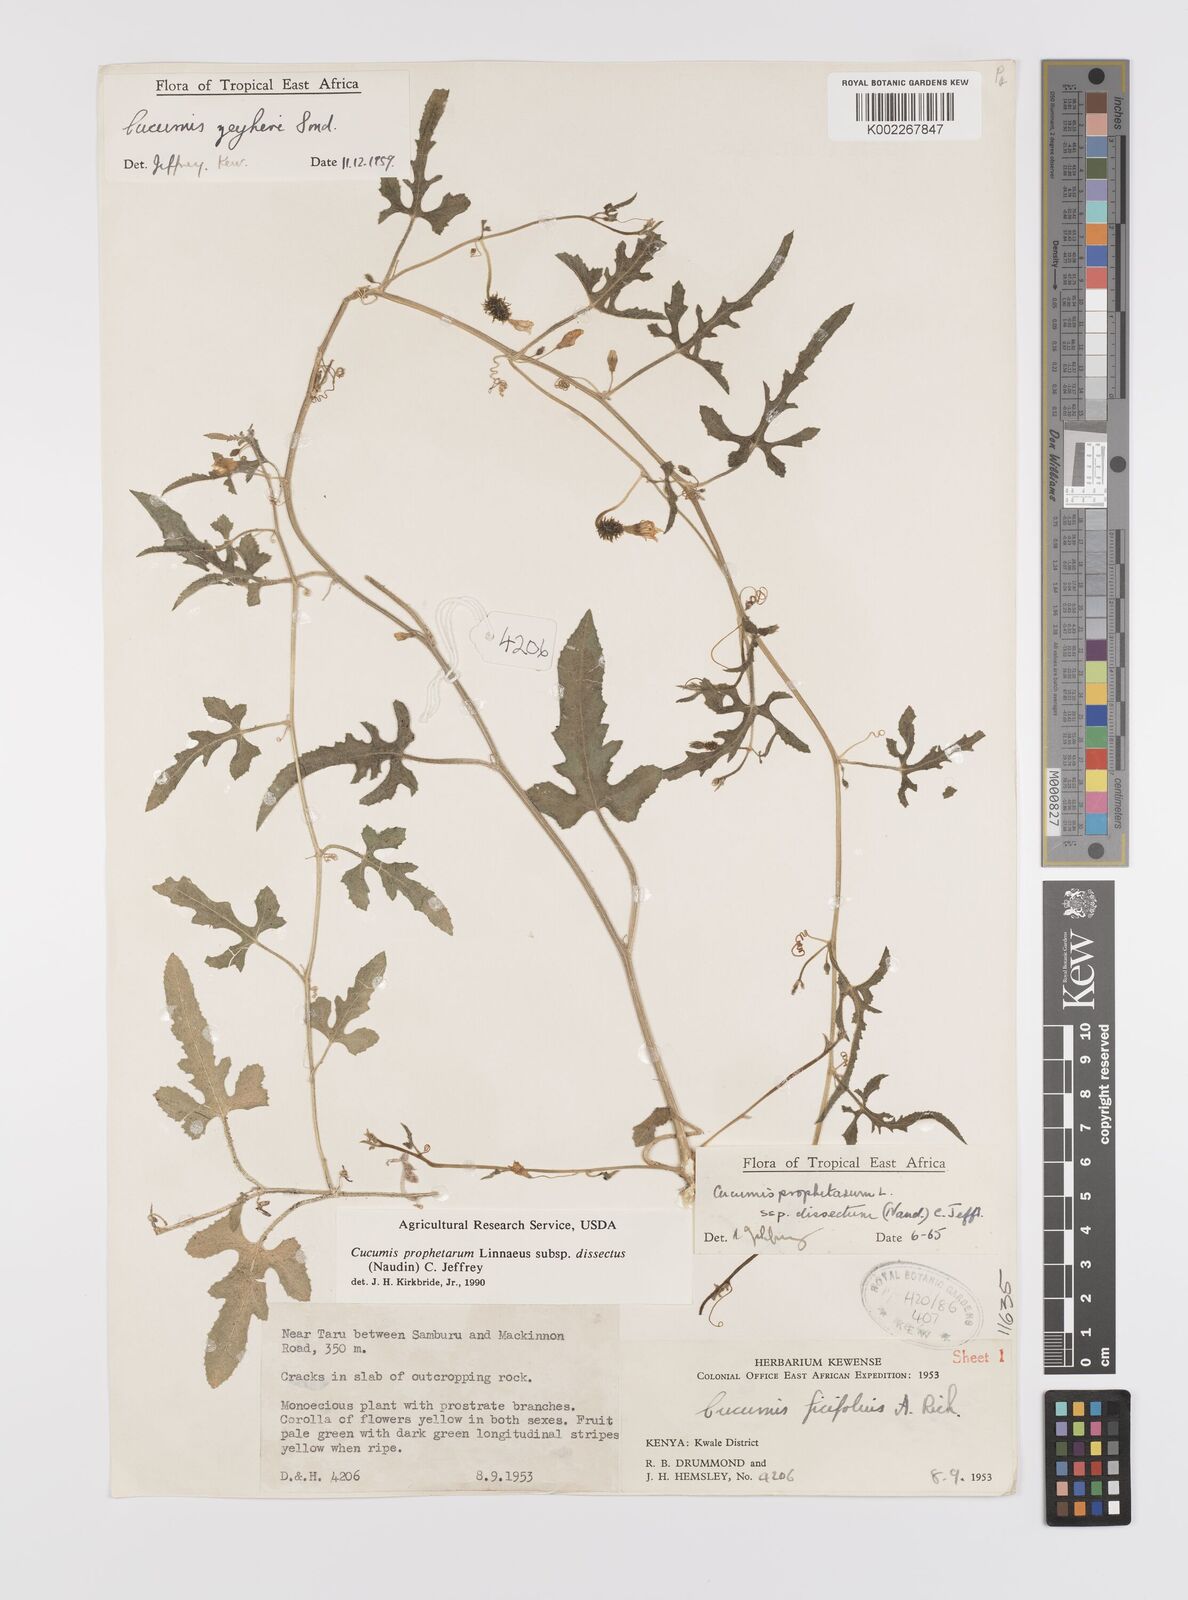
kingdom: Plantae
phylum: Tracheophyta
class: Magnoliopsida
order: Cucurbitales
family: Cucurbitaceae
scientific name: Cucurbitaceae
